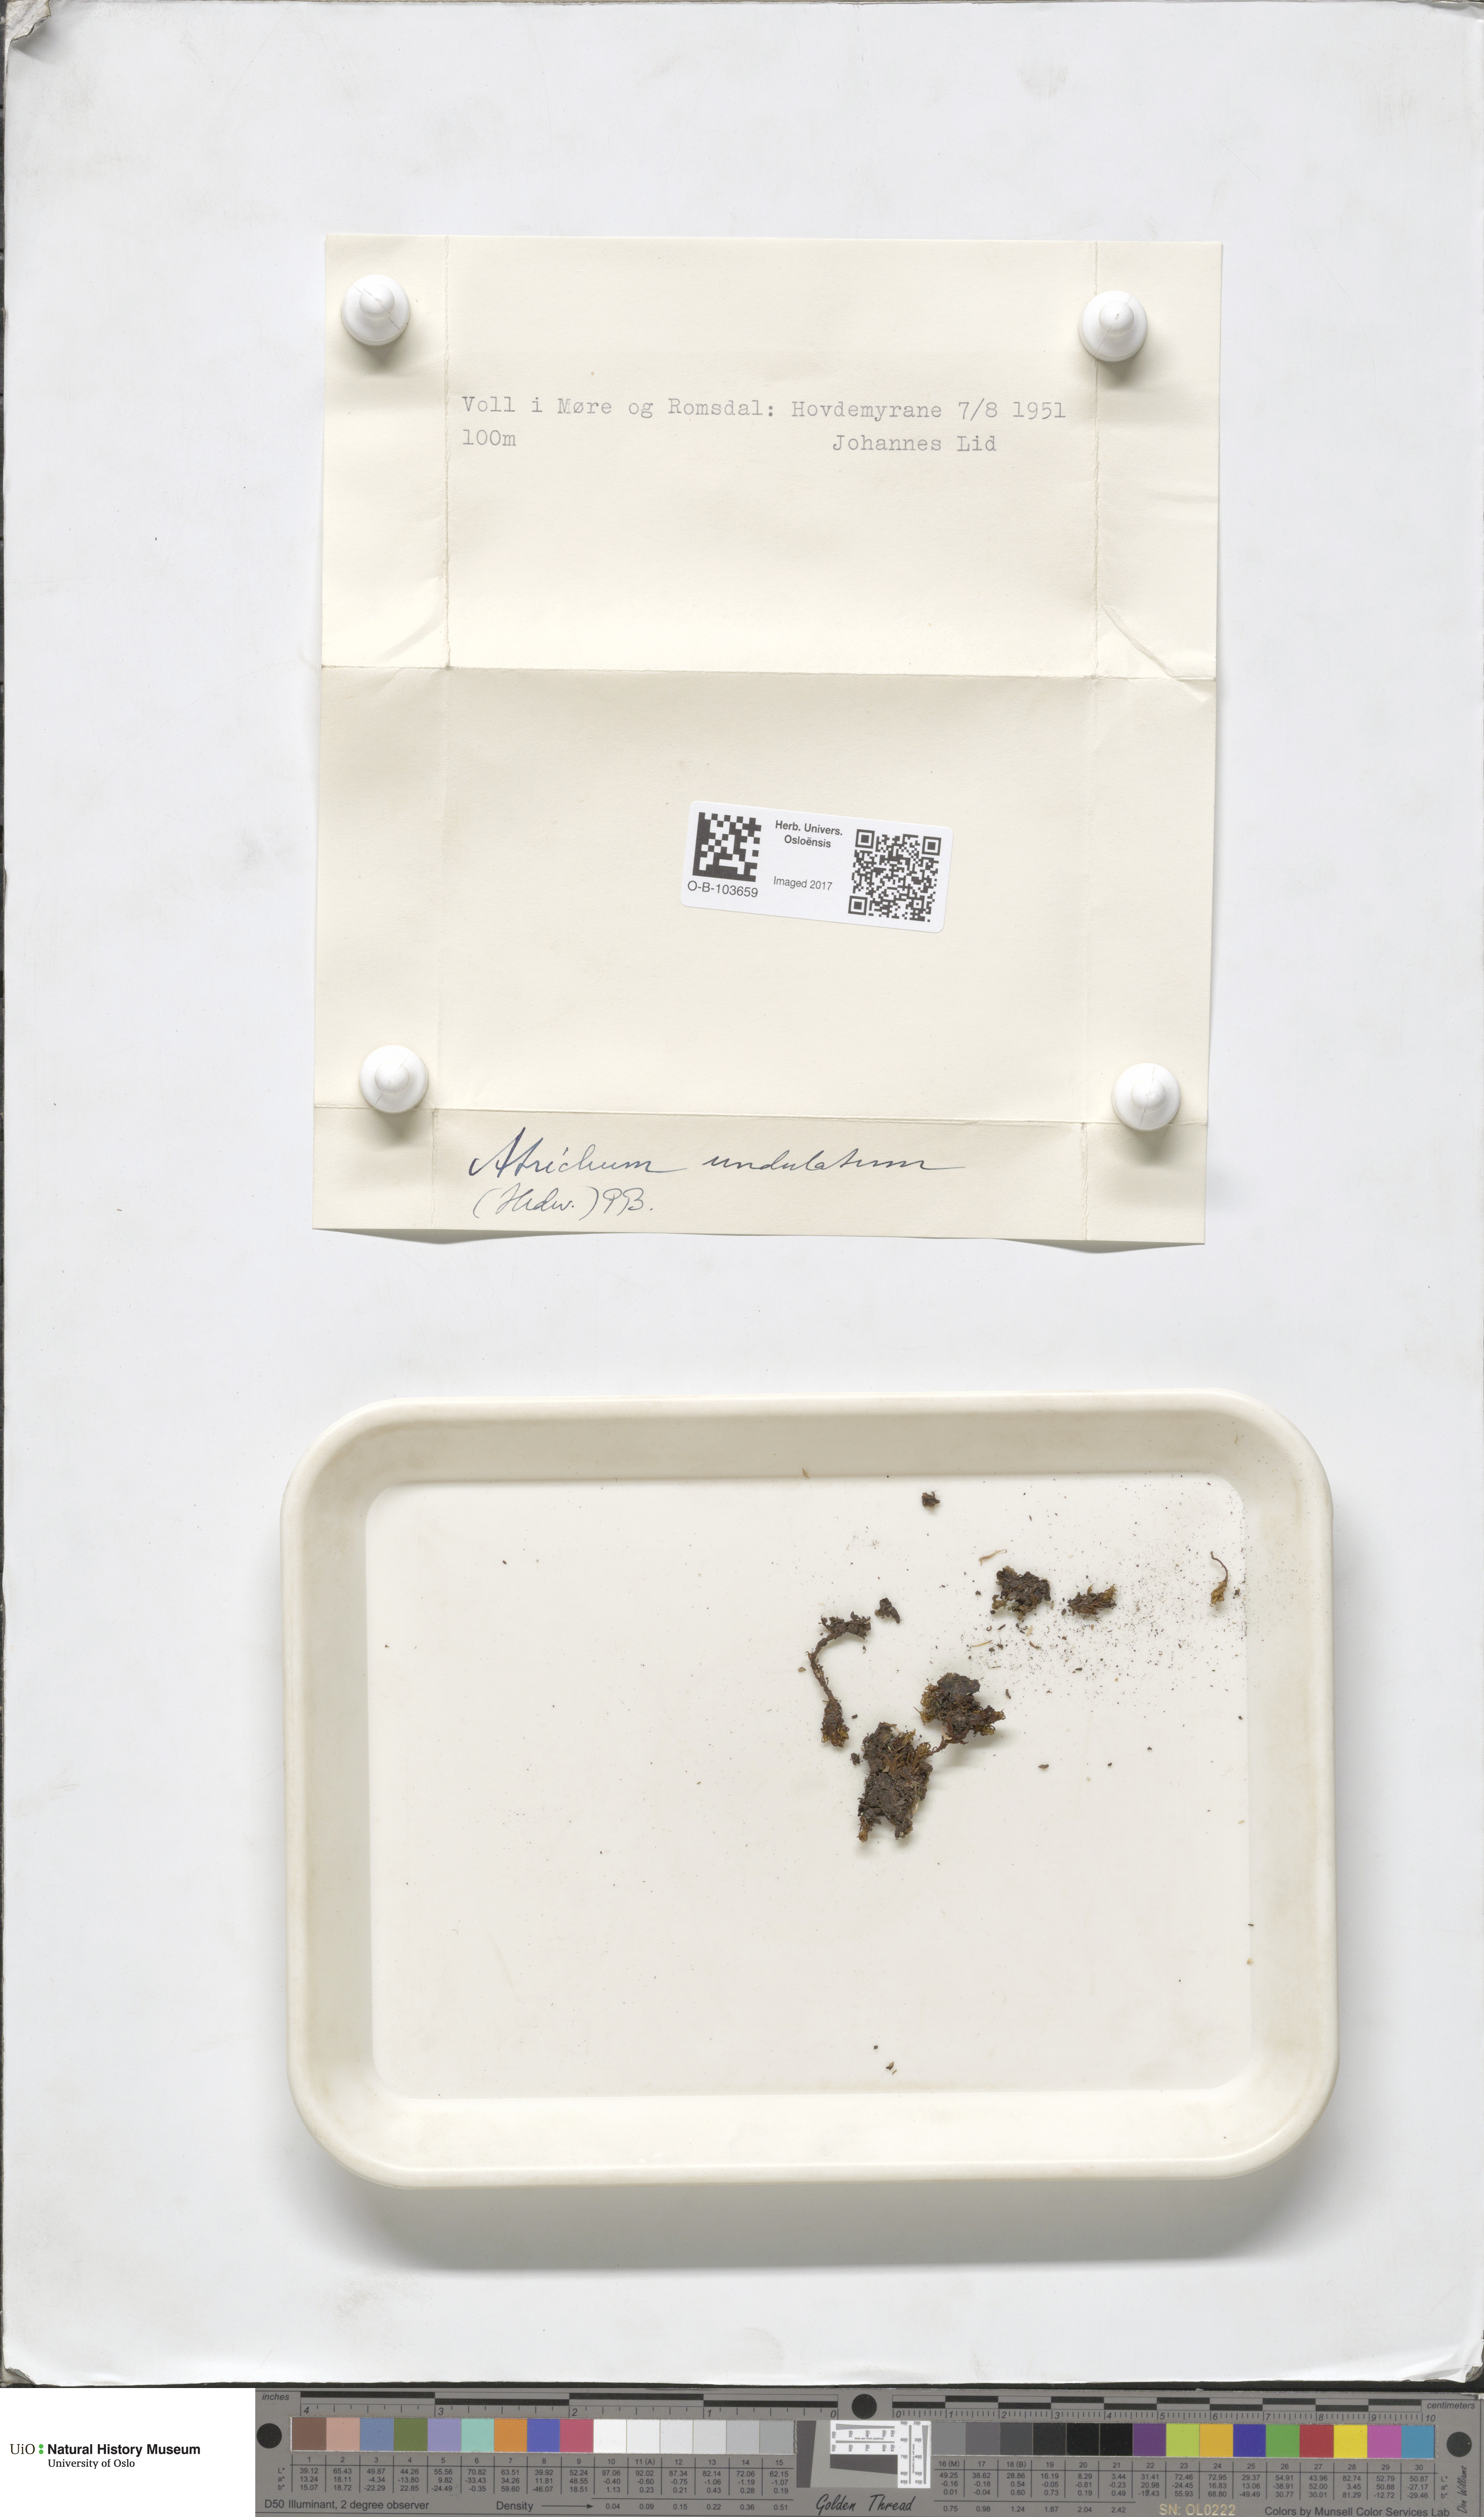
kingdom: Plantae
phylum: Bryophyta
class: Polytrichopsida
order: Polytrichales
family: Polytrichaceae
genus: Atrichum
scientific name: Atrichum undulatum
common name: Common smoothcap
